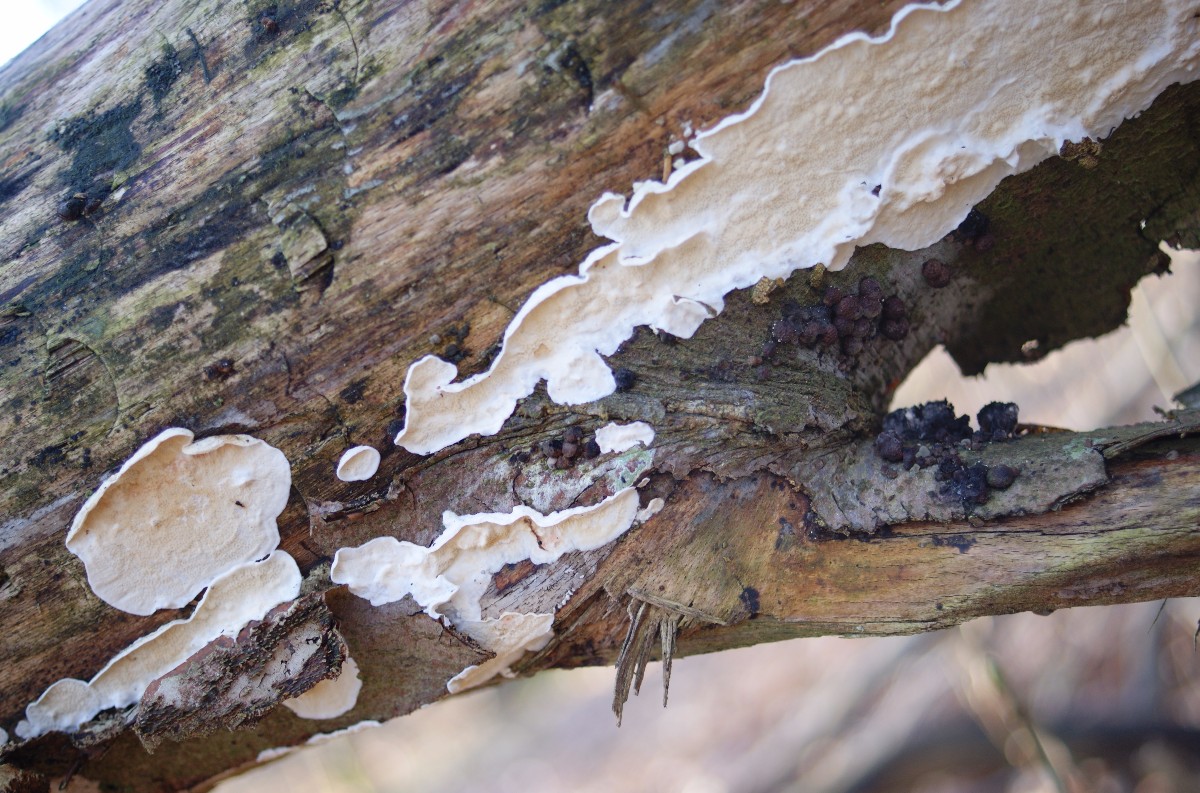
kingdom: Fungi
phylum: Basidiomycota
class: Agaricomycetes
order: Polyporales
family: Irpicaceae
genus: Byssomerulius
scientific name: Byssomerulius corium
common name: læder-åresvamp
